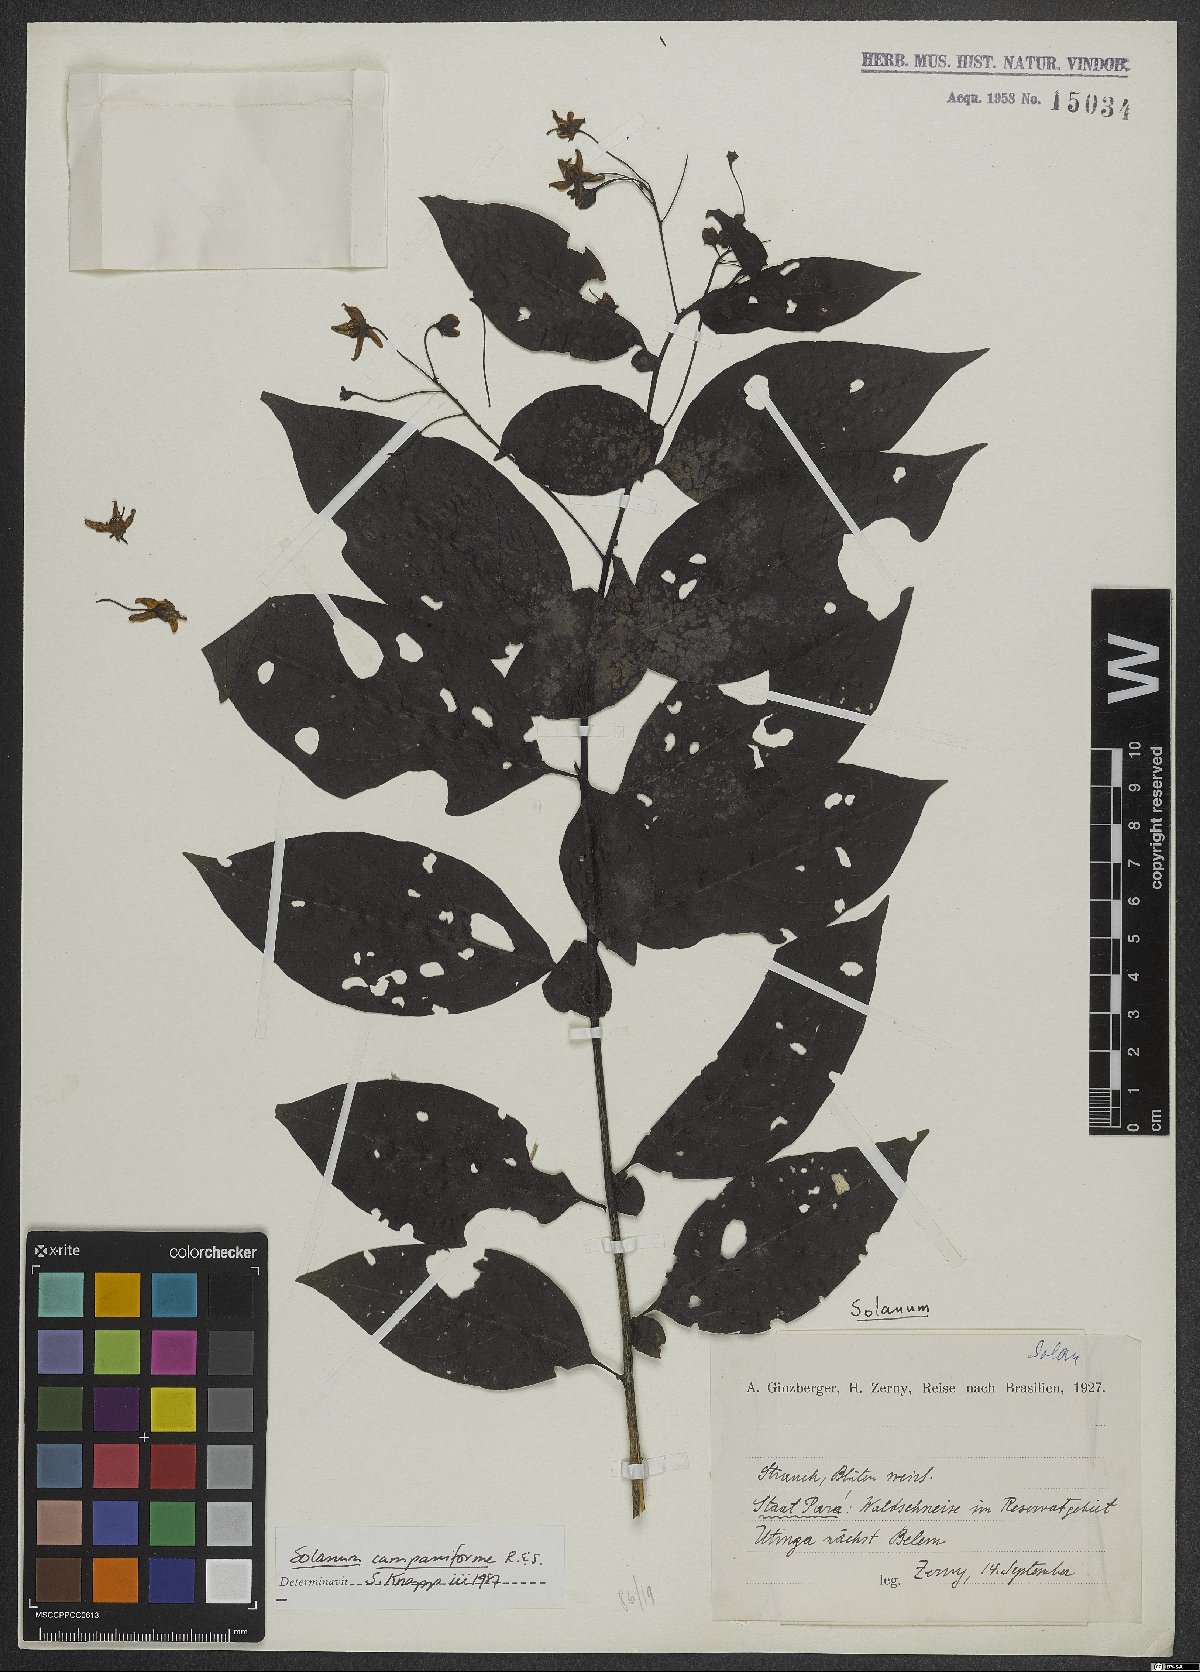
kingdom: Plantae
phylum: Tracheophyta
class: Magnoliopsida
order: Solanales
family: Solanaceae
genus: Solanum
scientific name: Solanum campaniforme
